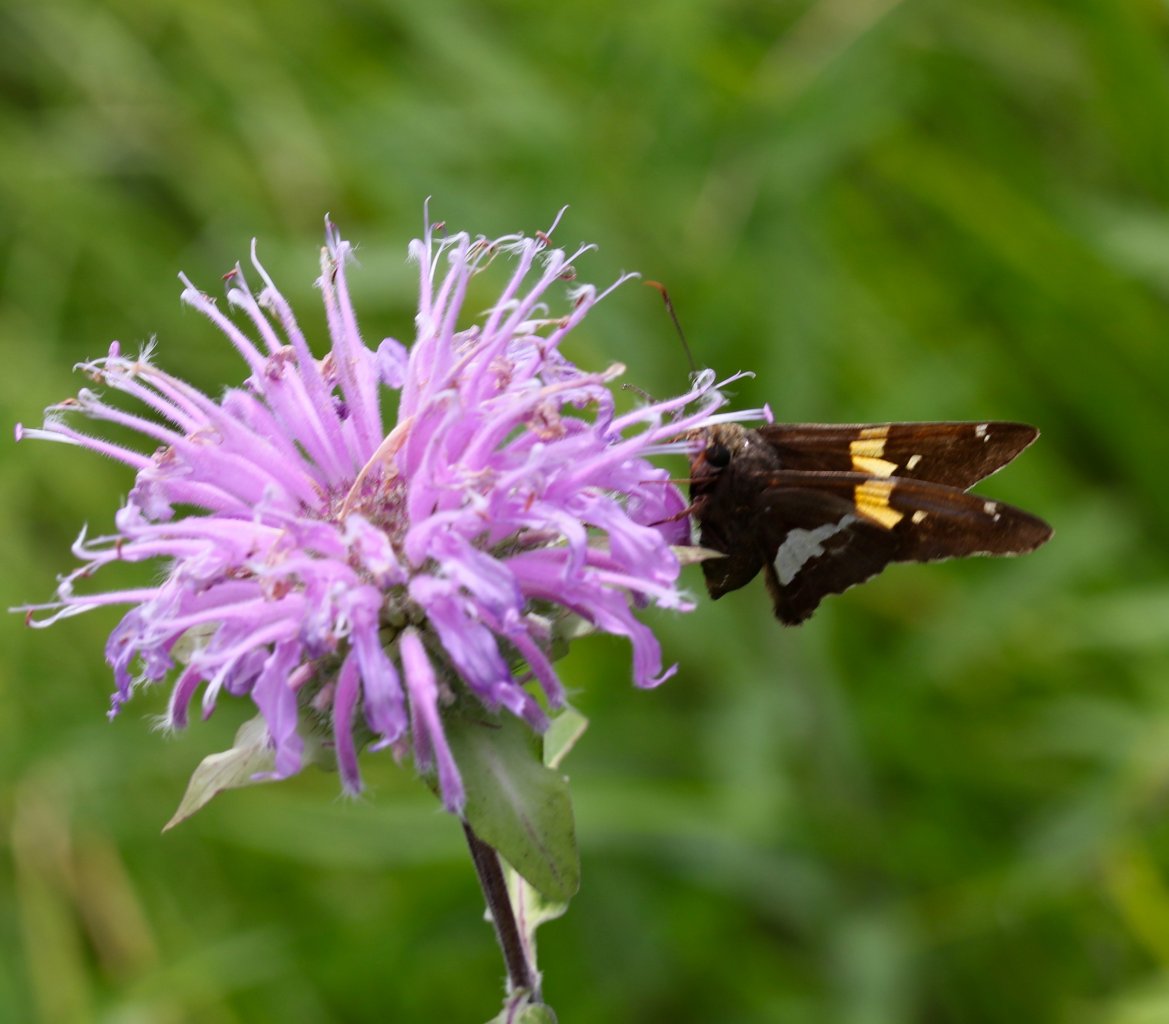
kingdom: Animalia
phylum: Arthropoda
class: Insecta
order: Lepidoptera
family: Hesperiidae
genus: Epargyreus
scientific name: Epargyreus clarus
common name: Silver-spotted Skipper
